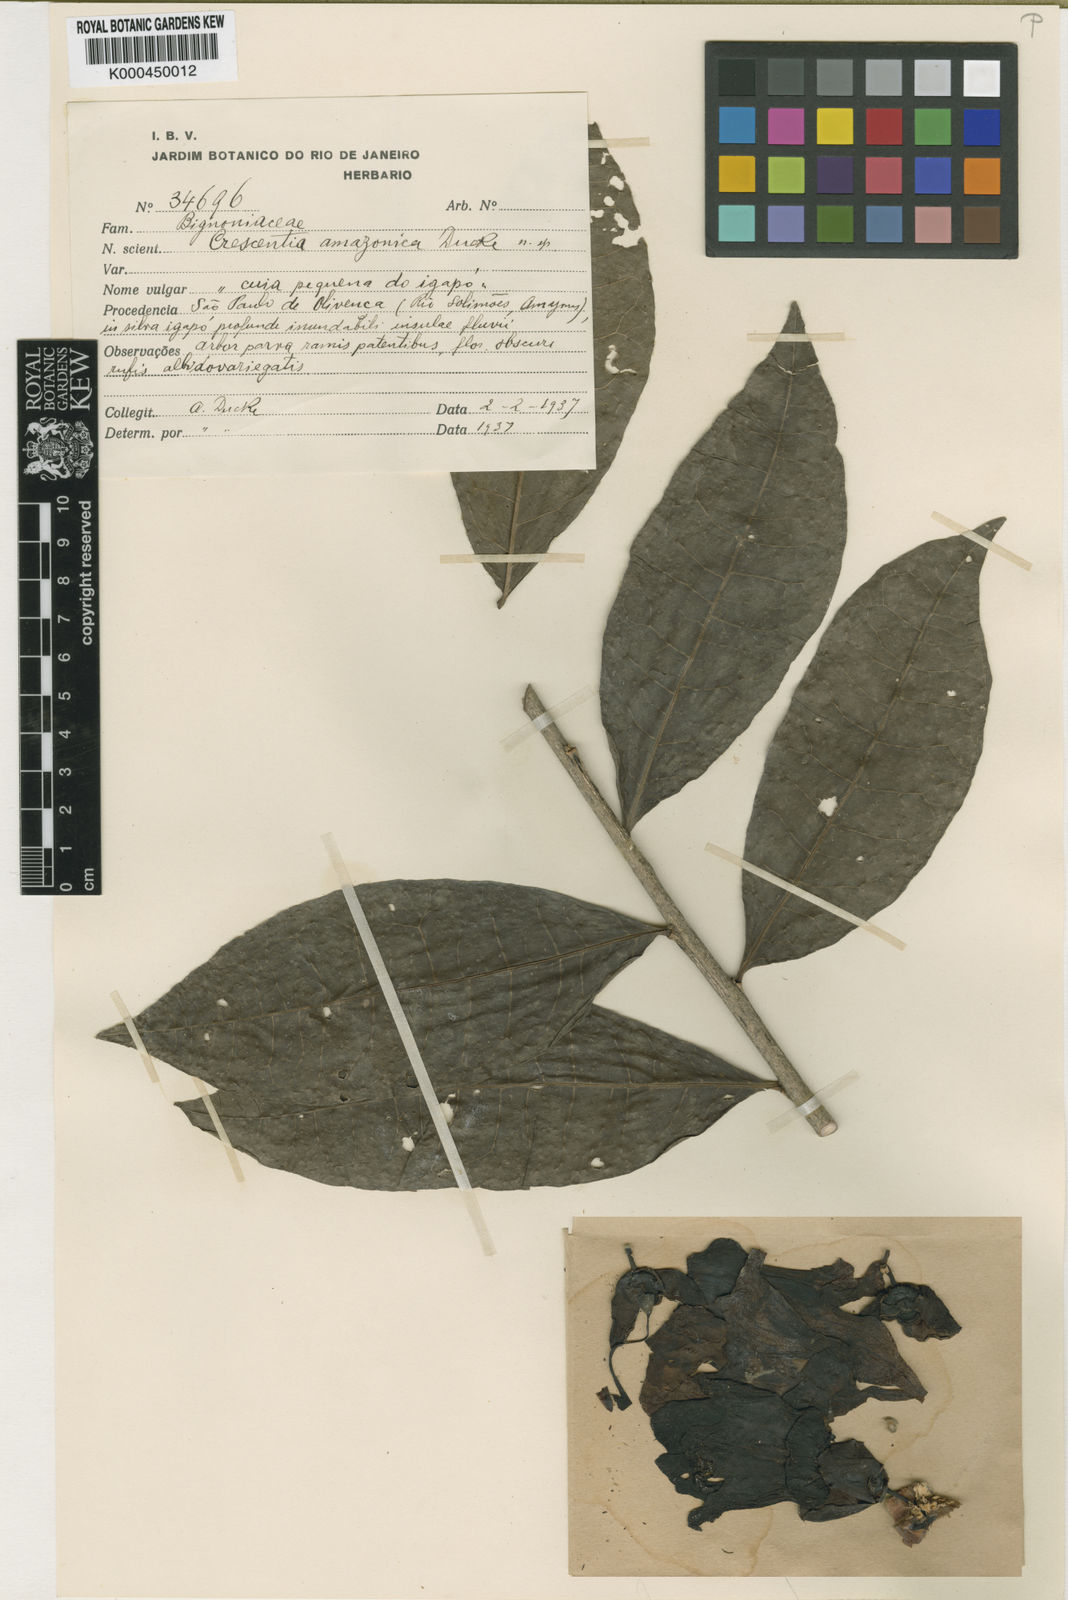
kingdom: Plantae
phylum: Tracheophyta
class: Magnoliopsida
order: Lamiales
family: Bignoniaceae
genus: Crescentia
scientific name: Crescentia amazonica
